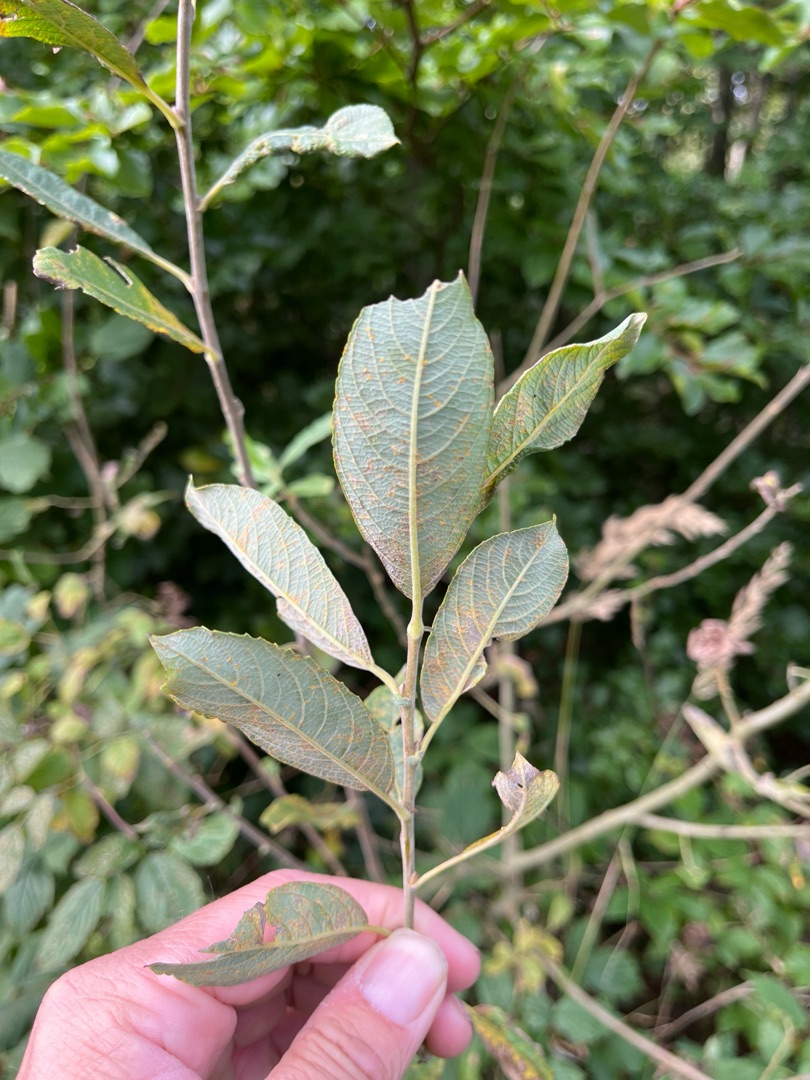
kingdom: Plantae
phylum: Tracheophyta
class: Magnoliopsida
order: Malpighiales
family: Salicaceae
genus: Salix
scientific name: Salix cinerea
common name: Grå-pil
